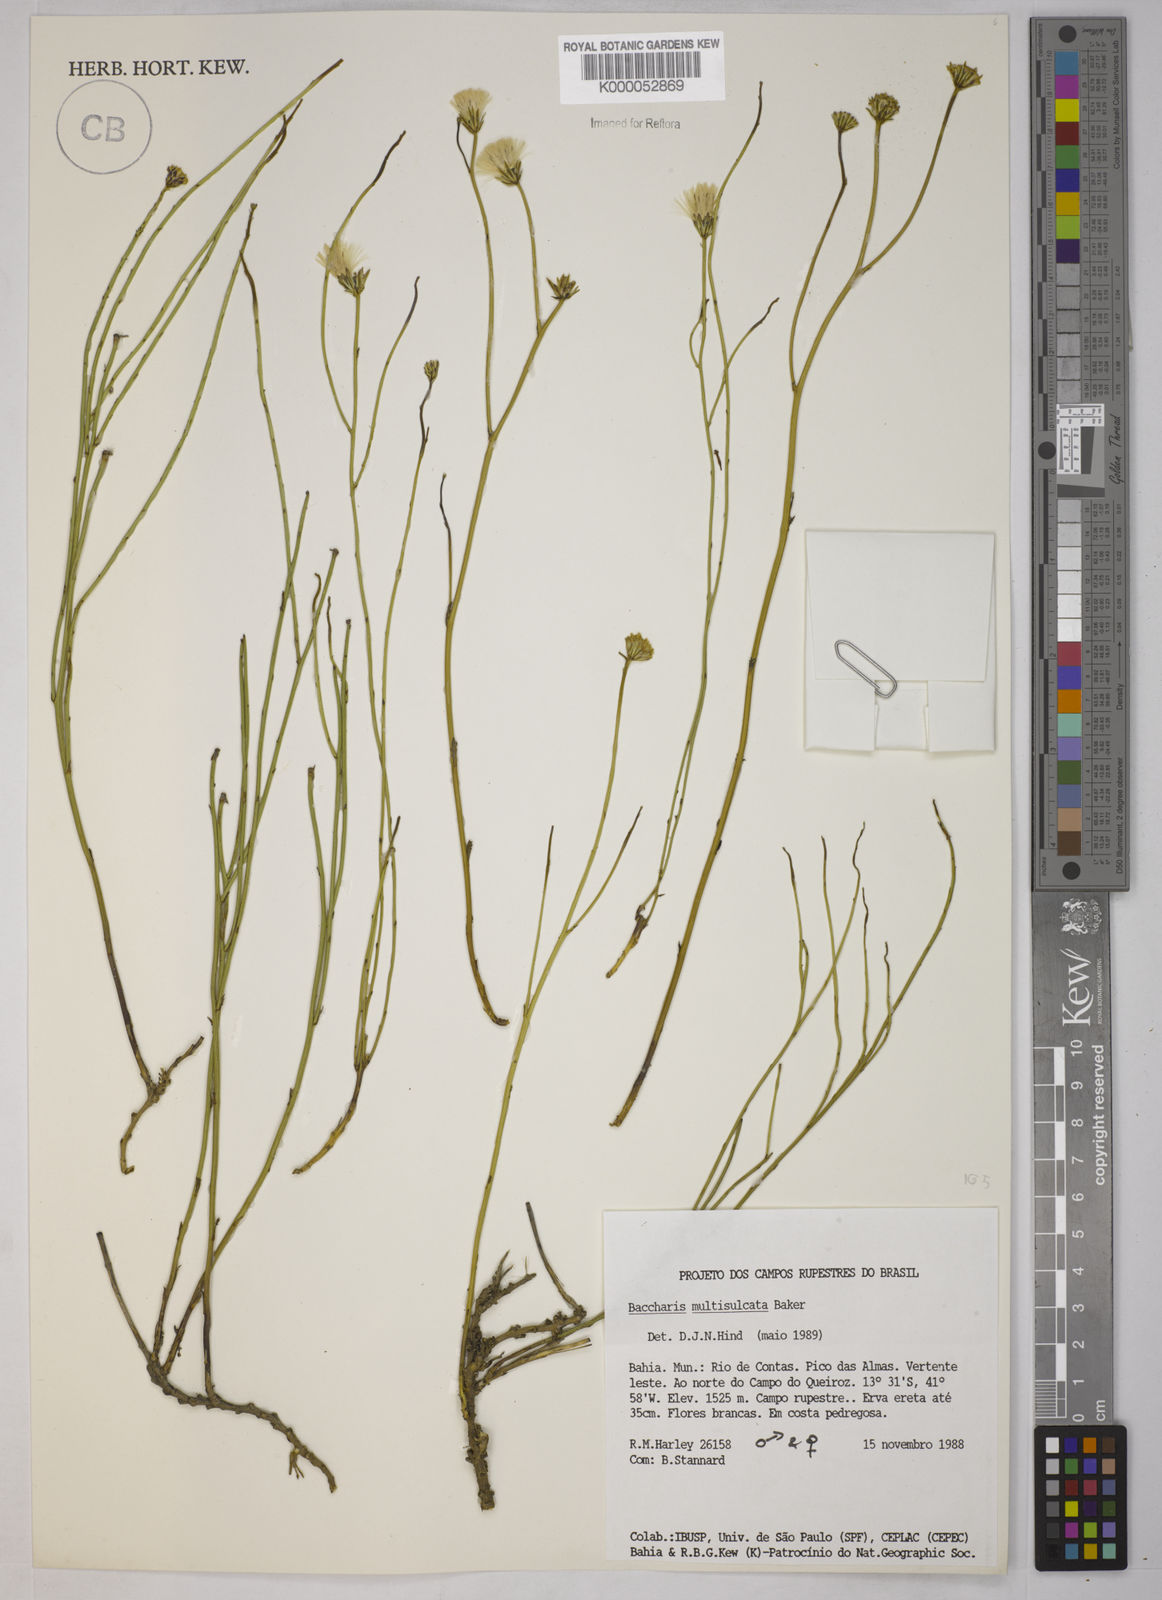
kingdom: Plantae
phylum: Tracheophyta
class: Magnoliopsida
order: Asterales
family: Asteraceae
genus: Baccharis
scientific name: Baccharis orbignyana
